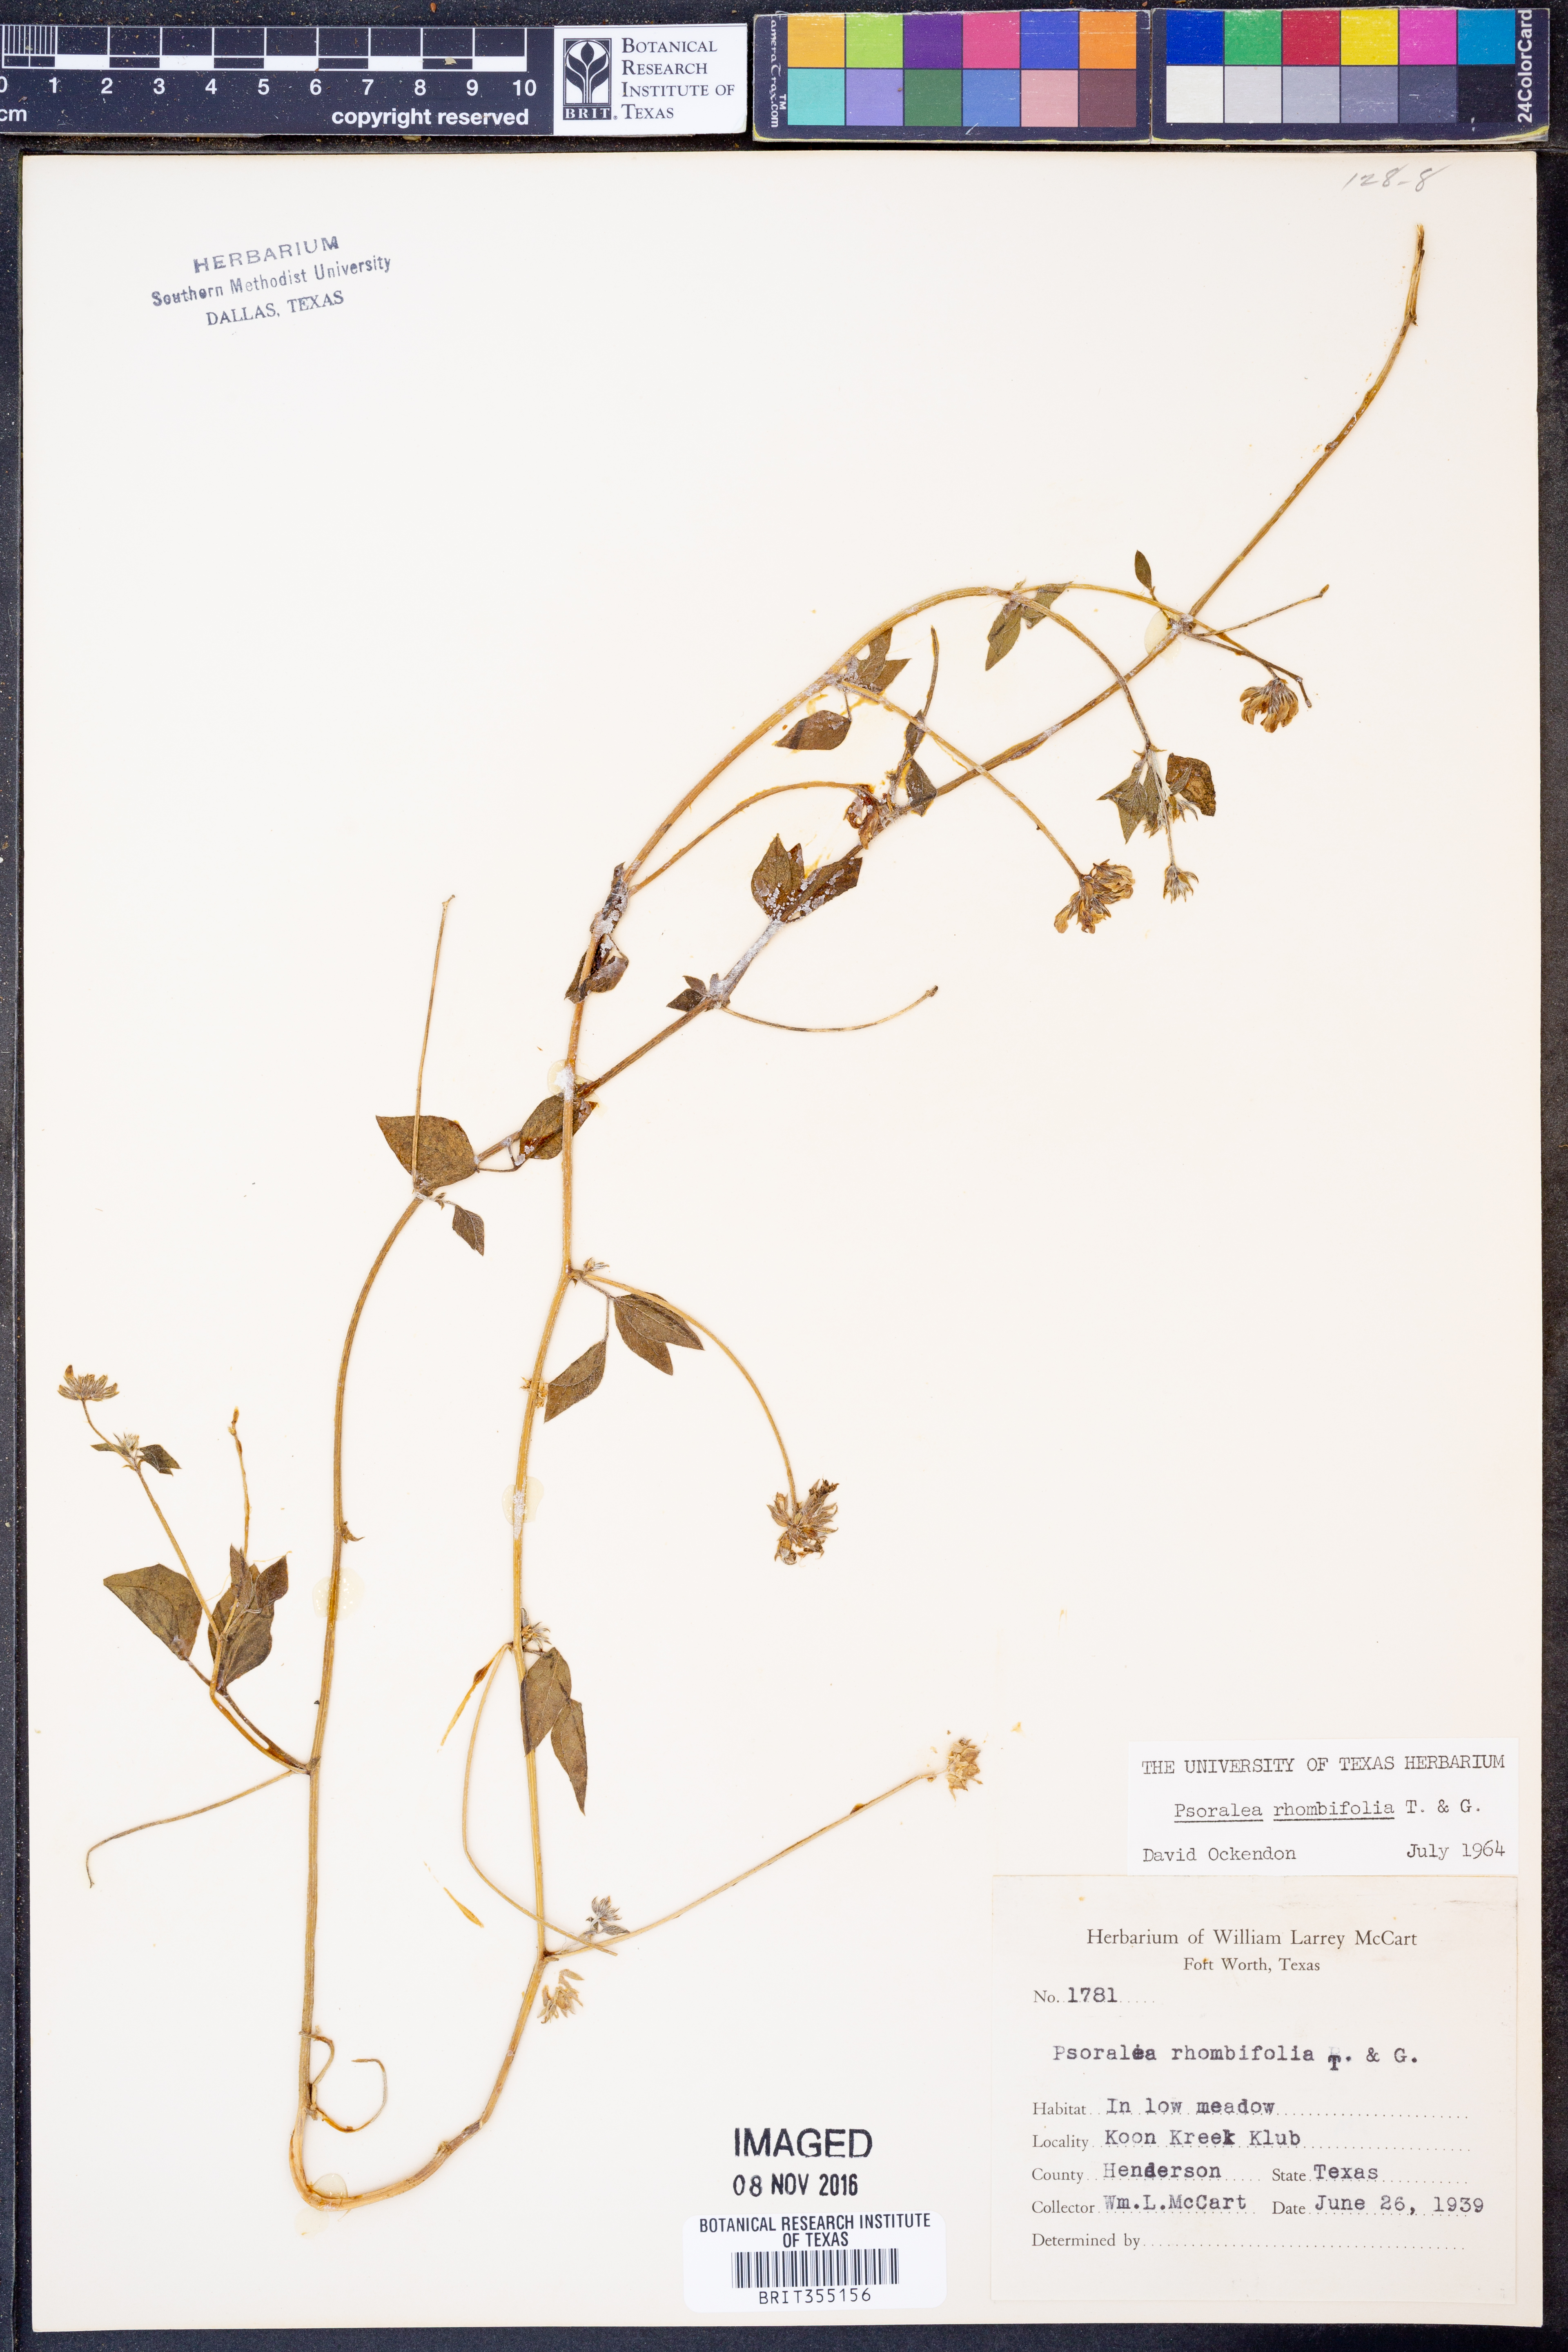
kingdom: Plantae
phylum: Tracheophyta
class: Magnoliopsida
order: Fabales
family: Fabaceae
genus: Pediomelum
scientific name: Pediomelum rhombifolium
